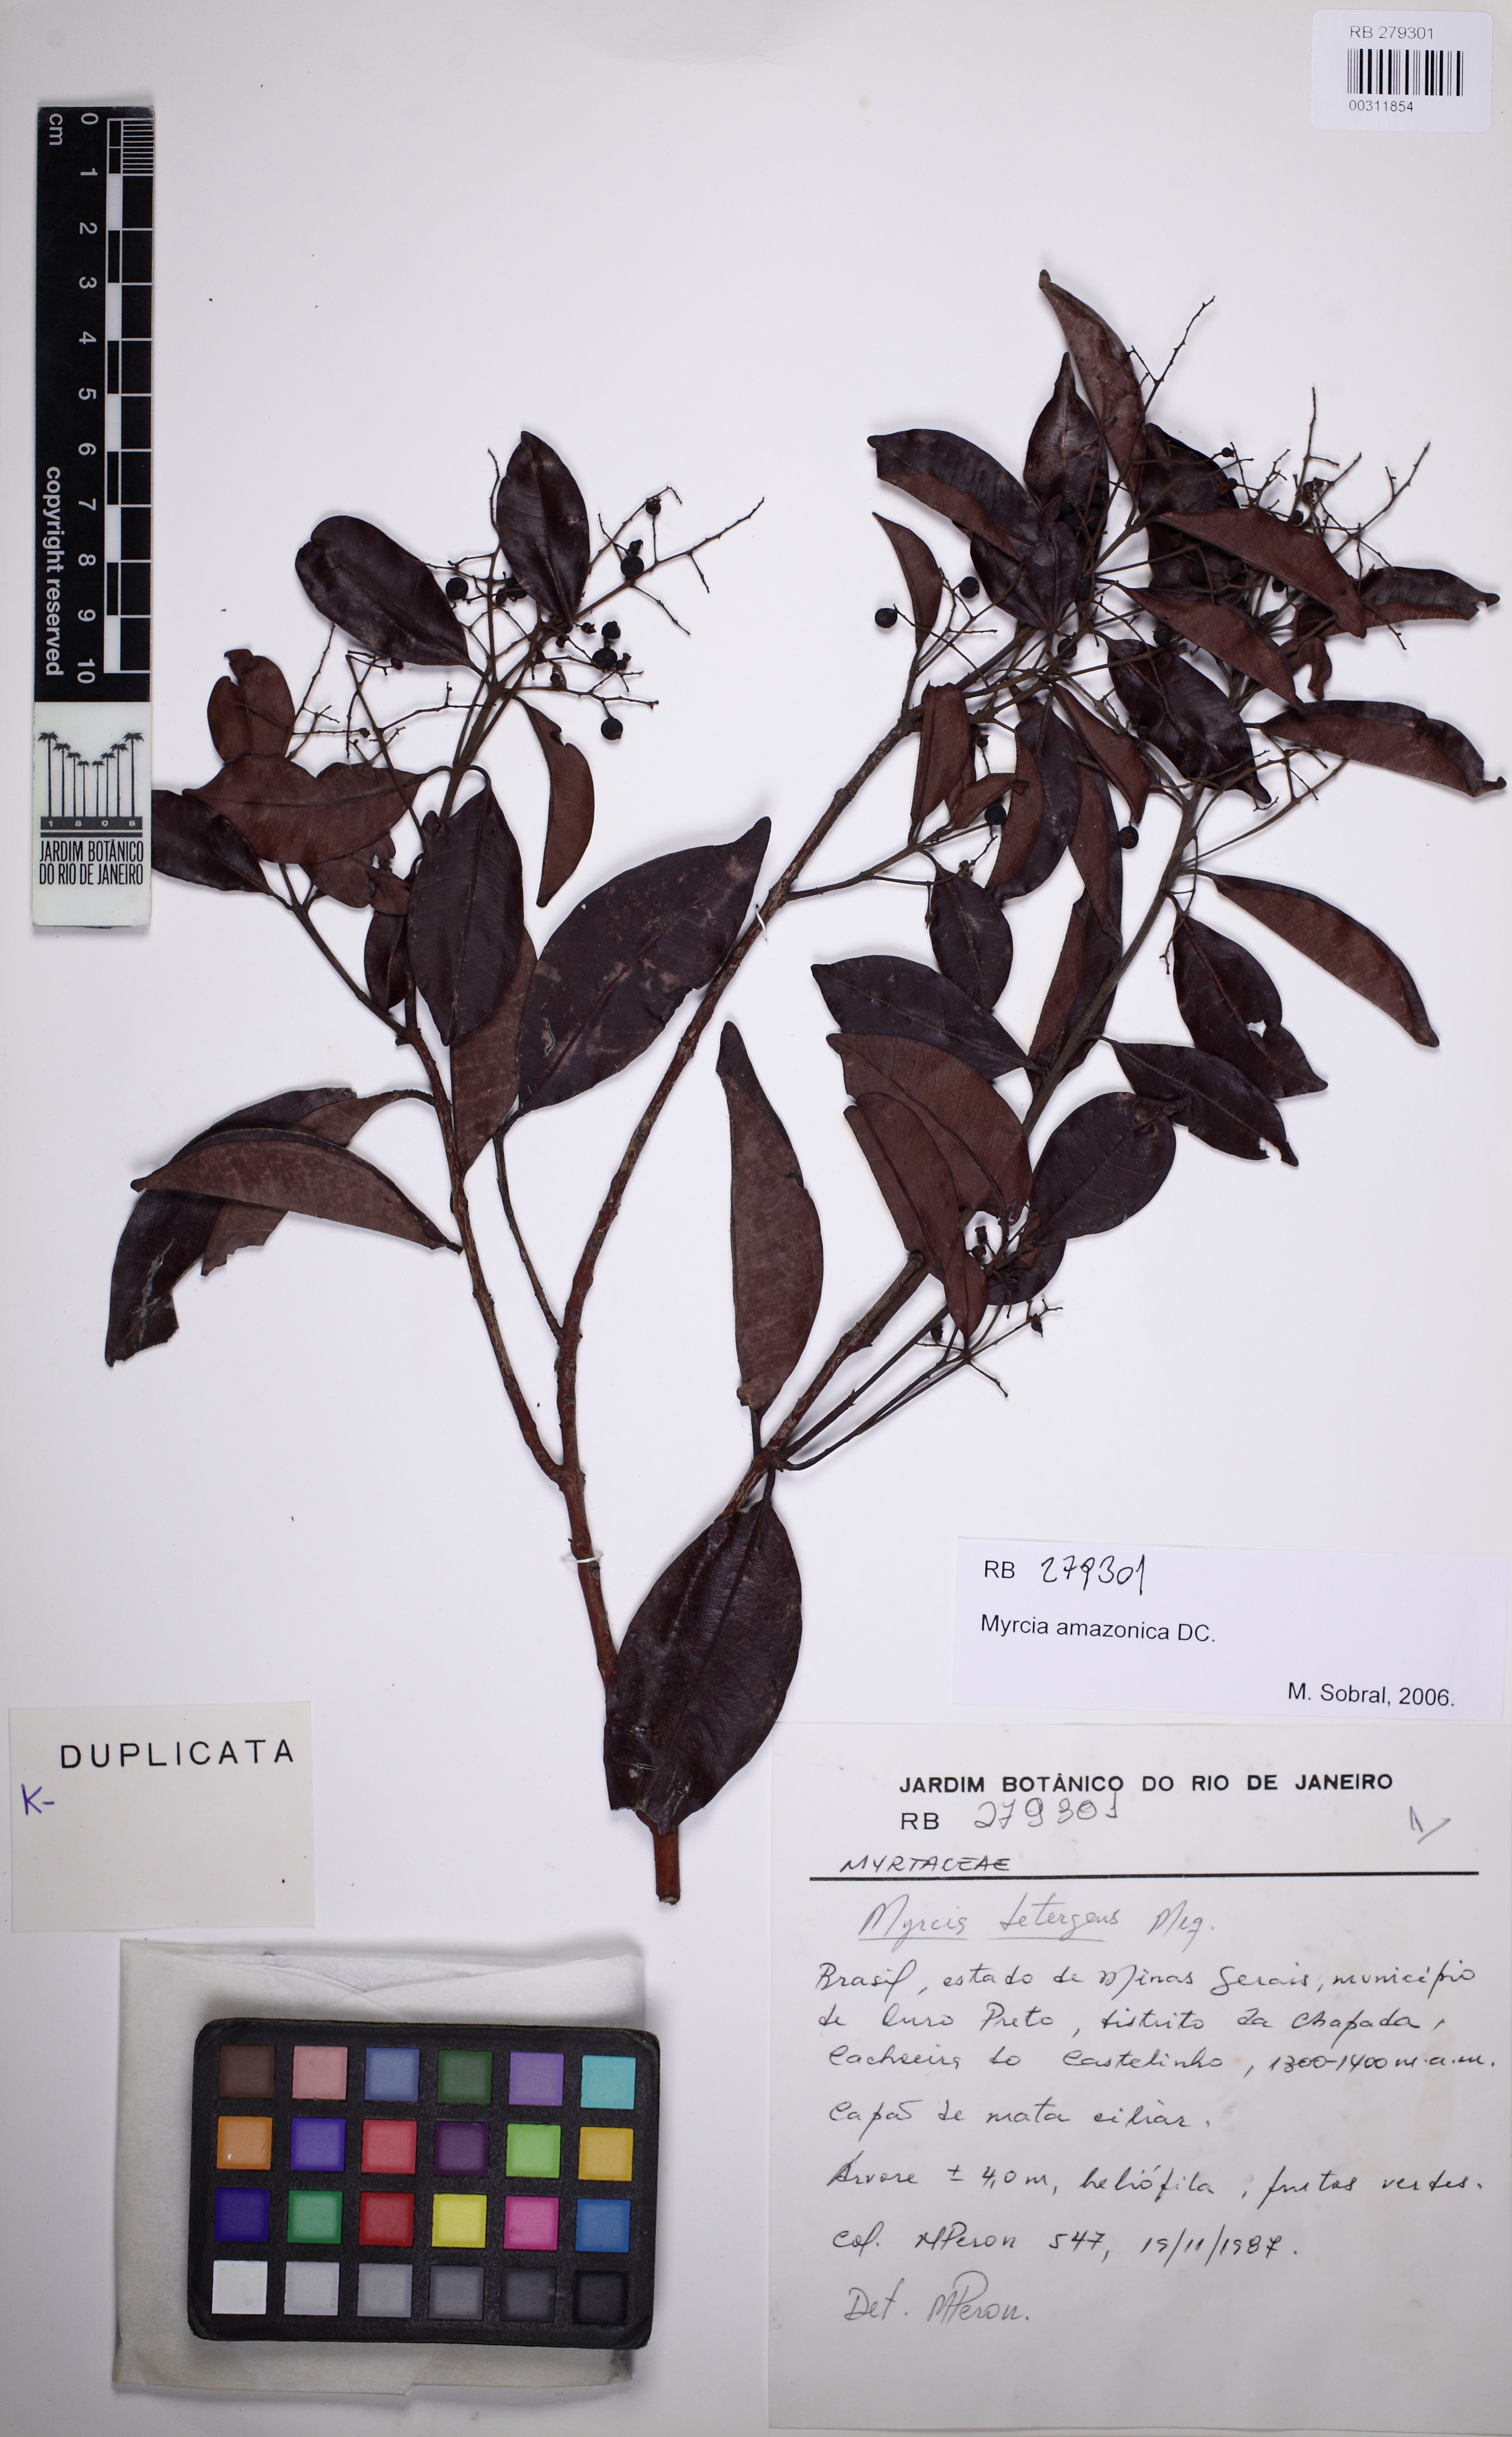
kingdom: Plantae
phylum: Tracheophyta
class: Magnoliopsida
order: Myrtales
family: Myrtaceae
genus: Myrcia
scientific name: Myrcia amazonica
